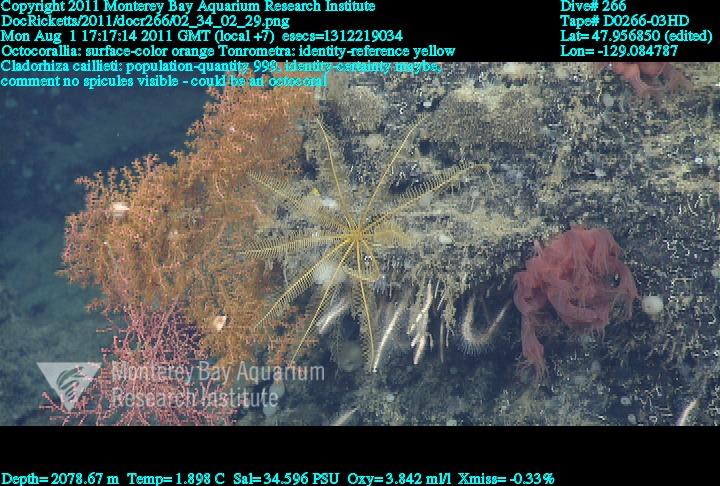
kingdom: Animalia
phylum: Porifera
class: Demospongiae
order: Poecilosclerida
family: Cladorhizidae
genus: Nullarbora
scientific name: Nullarbora caillieti
